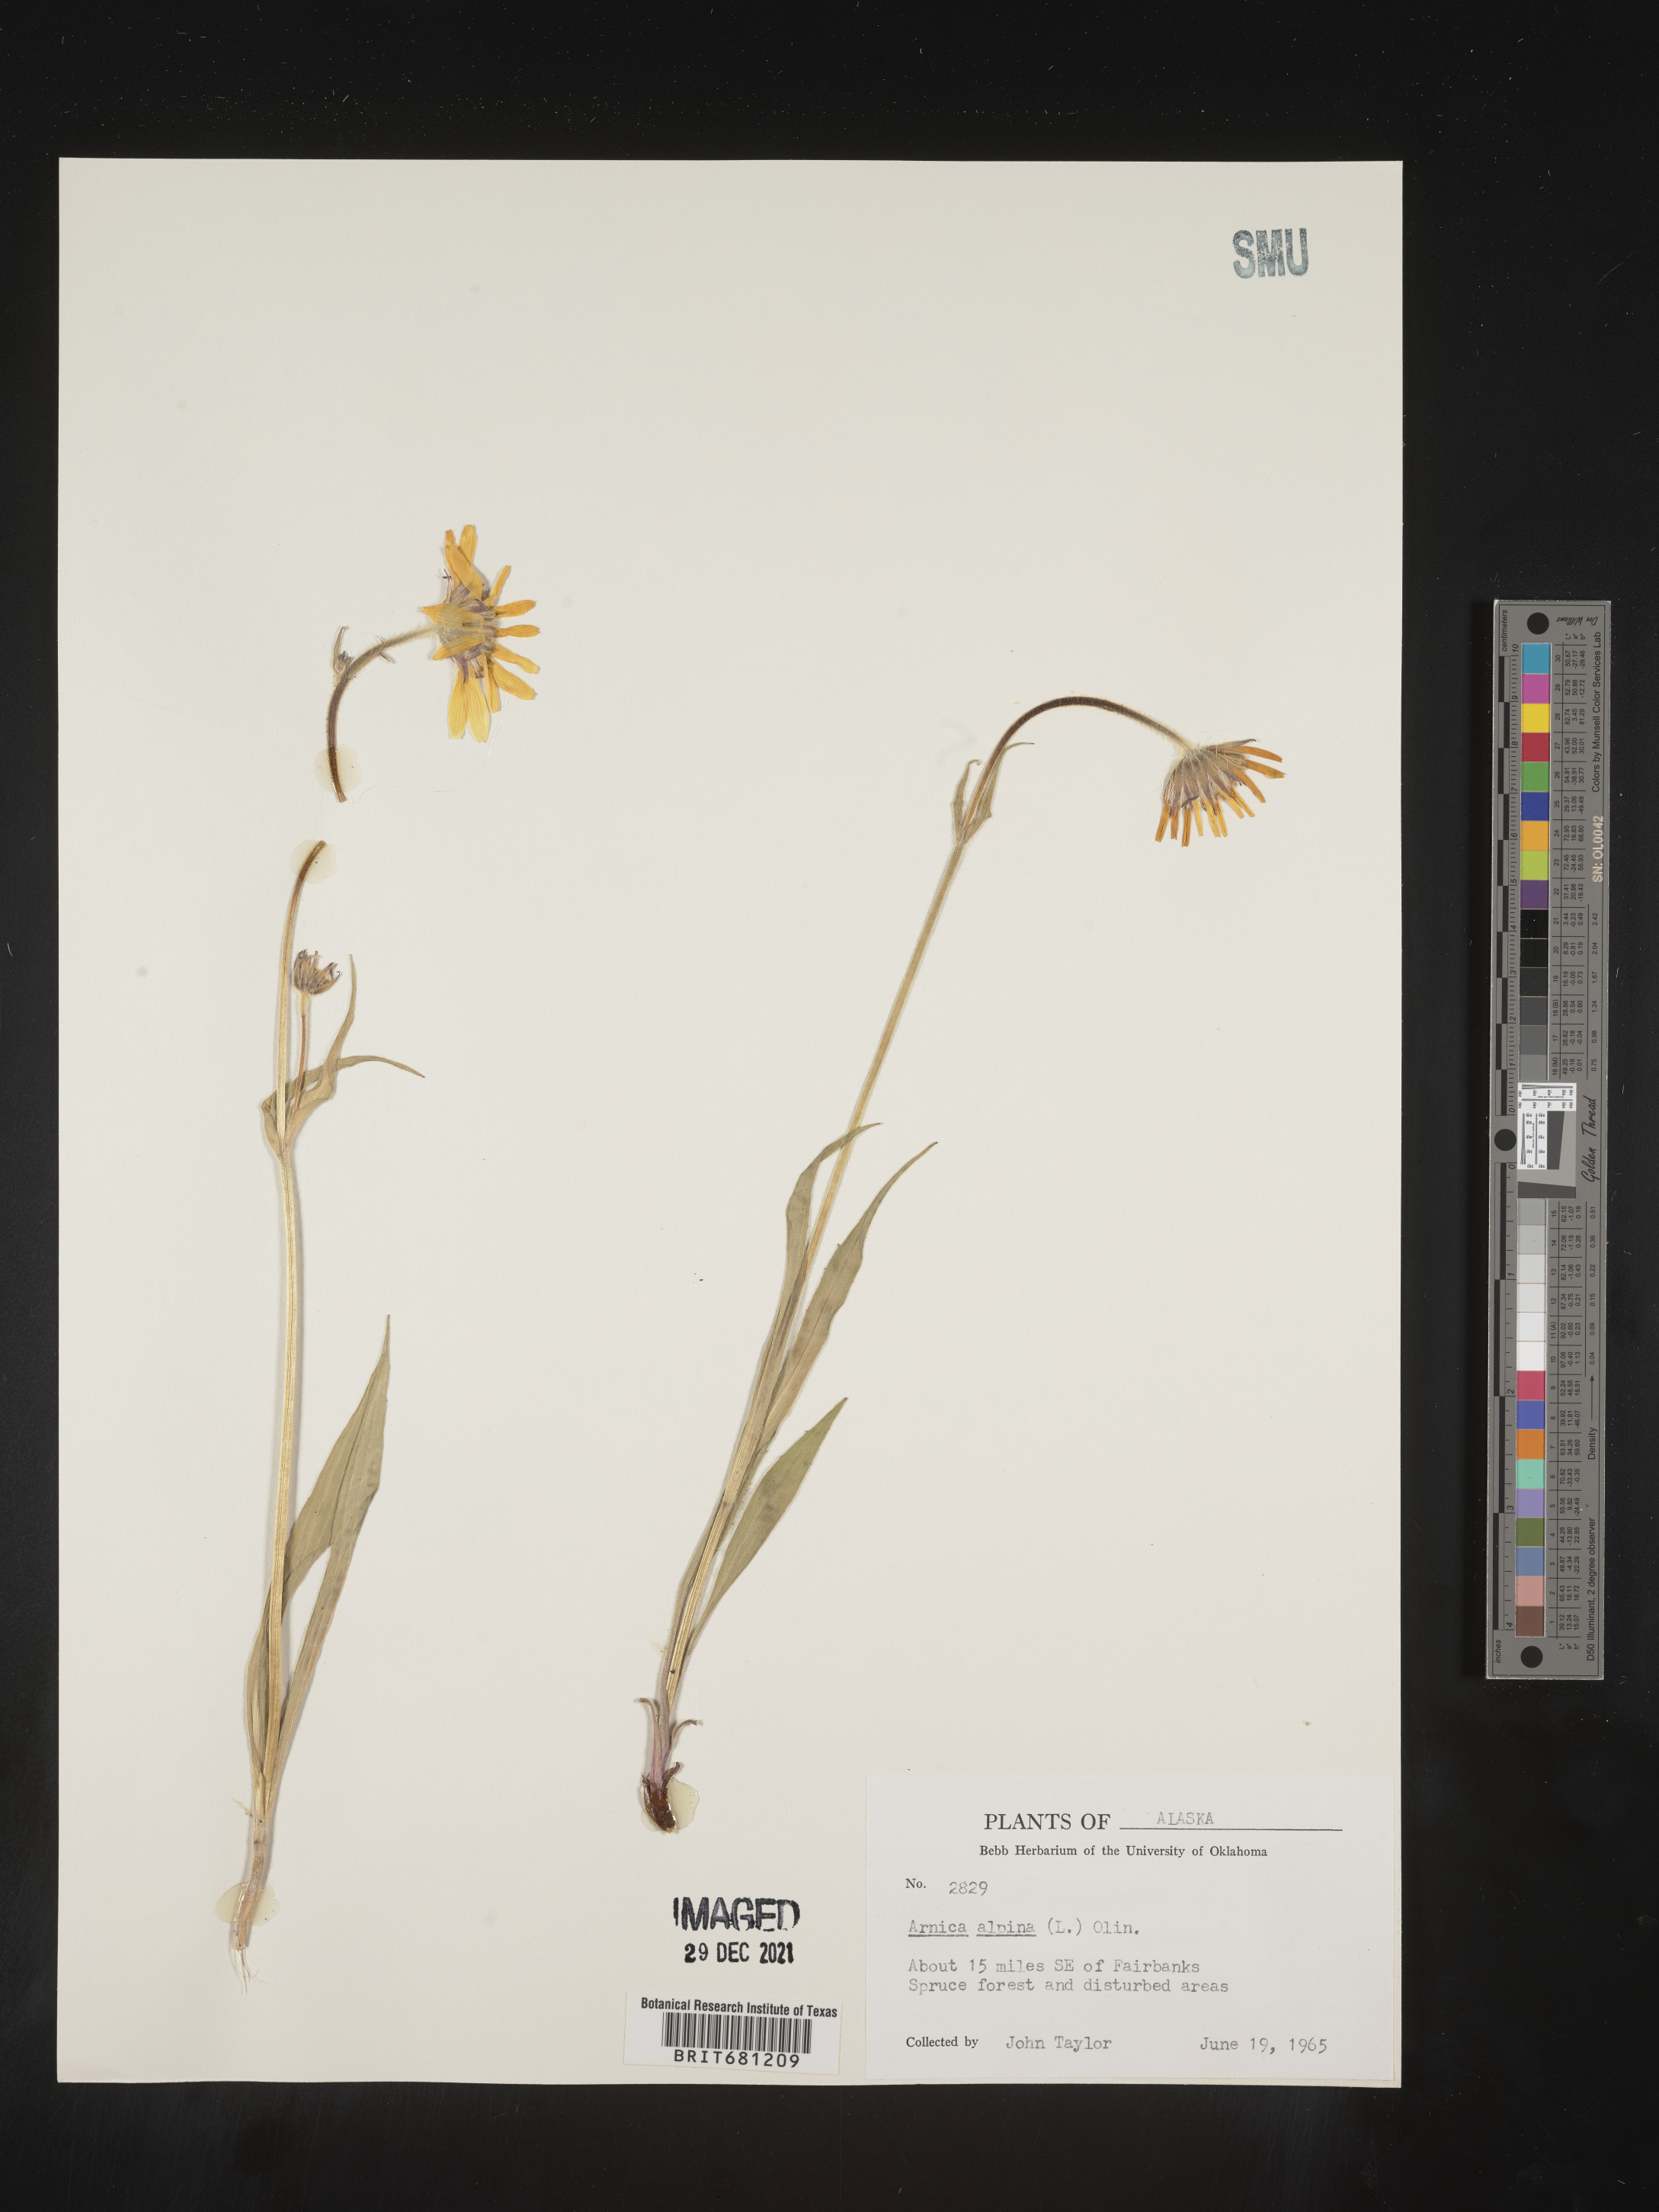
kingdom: Plantae
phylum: Tracheophyta
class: Magnoliopsida
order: Asterales
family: Asteraceae
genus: Arnica
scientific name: Arnica angustifolia
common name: Arctic arnica
